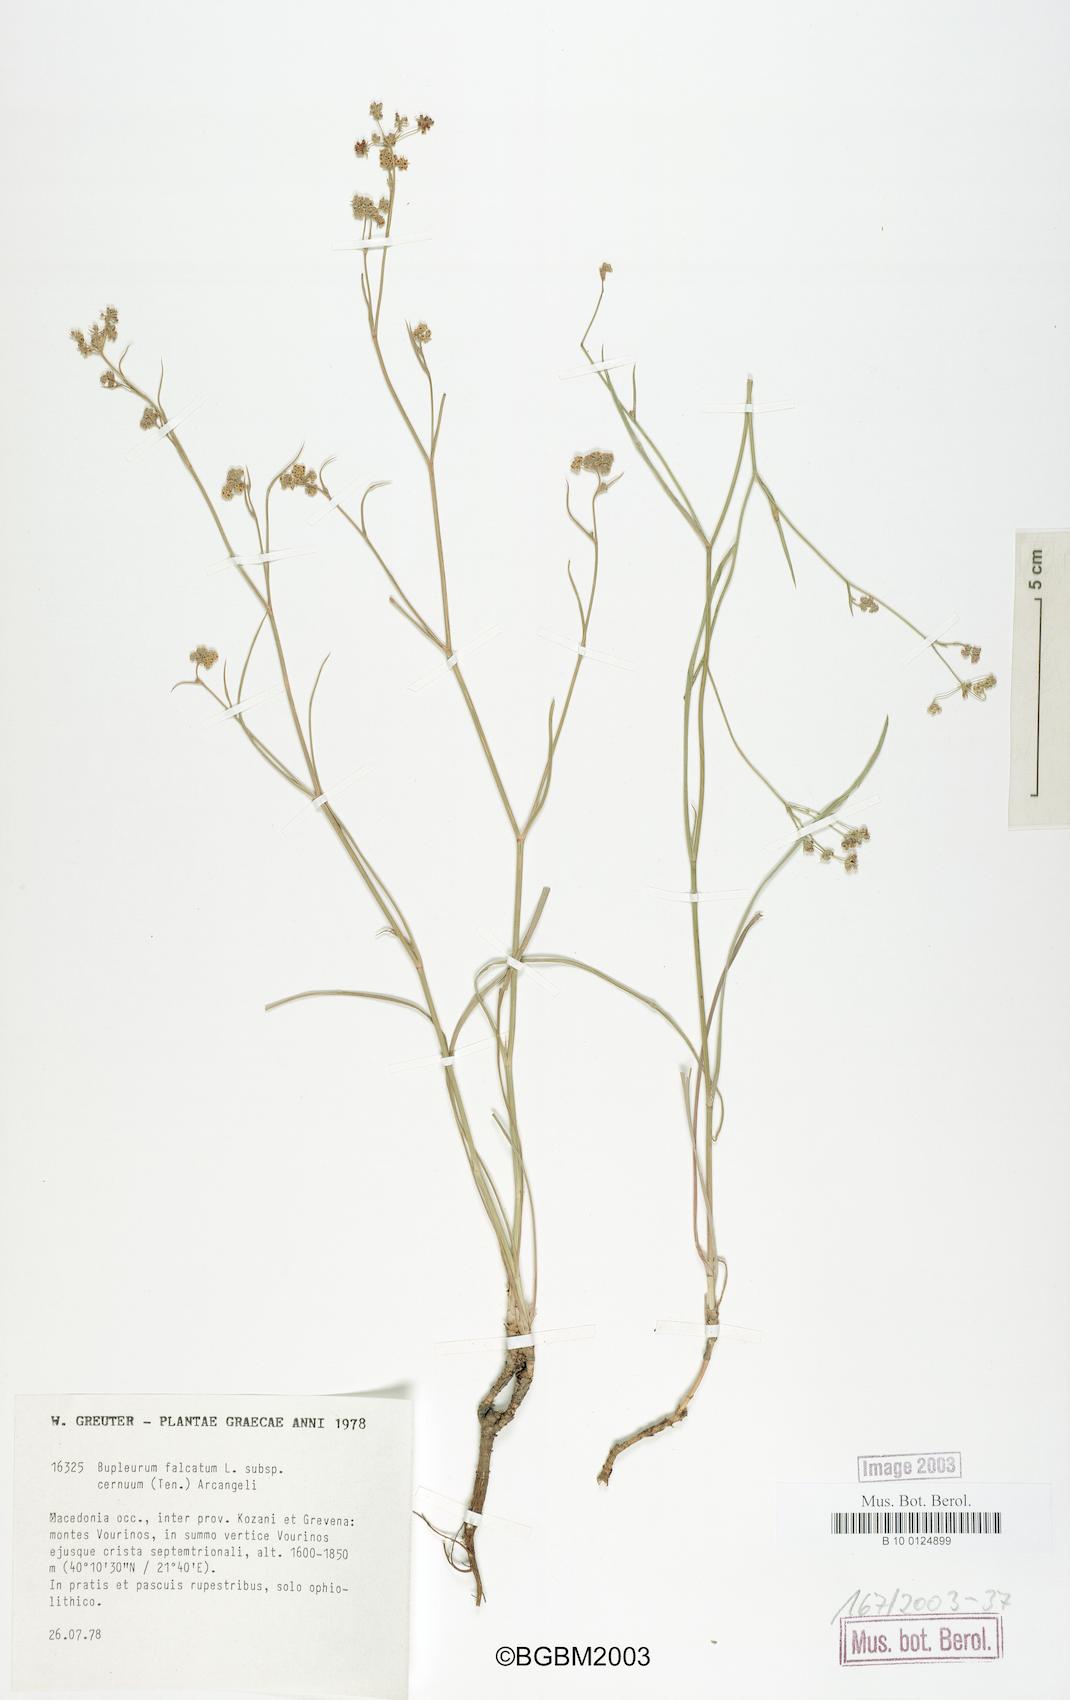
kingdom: Plantae
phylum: Tracheophyta
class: Magnoliopsida
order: Apiales
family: Apiaceae
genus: Bupleurum
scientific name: Bupleurum exaltatum
